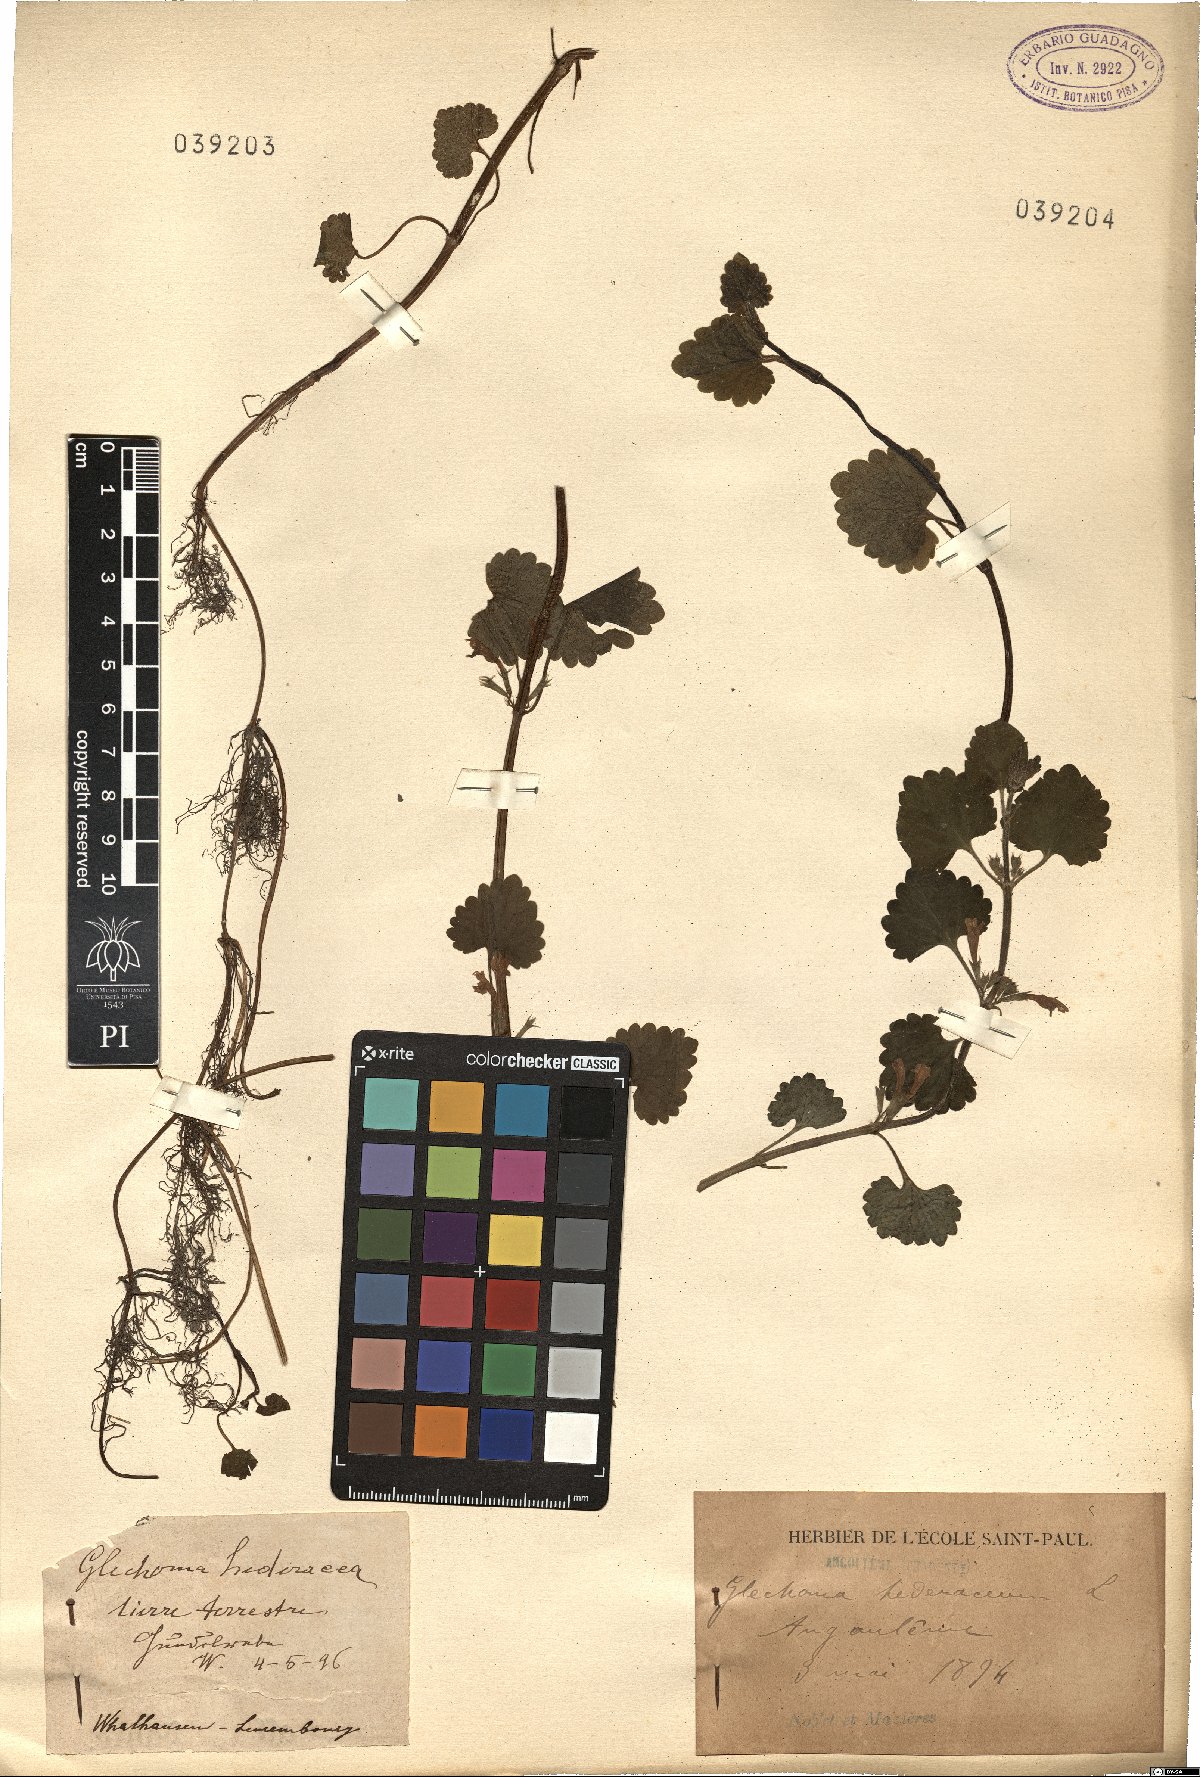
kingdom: Plantae
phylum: Tracheophyta
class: Magnoliopsida
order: Lamiales
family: Lamiaceae
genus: Glechoma
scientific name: Glechoma hederacea
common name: Ground ivy
